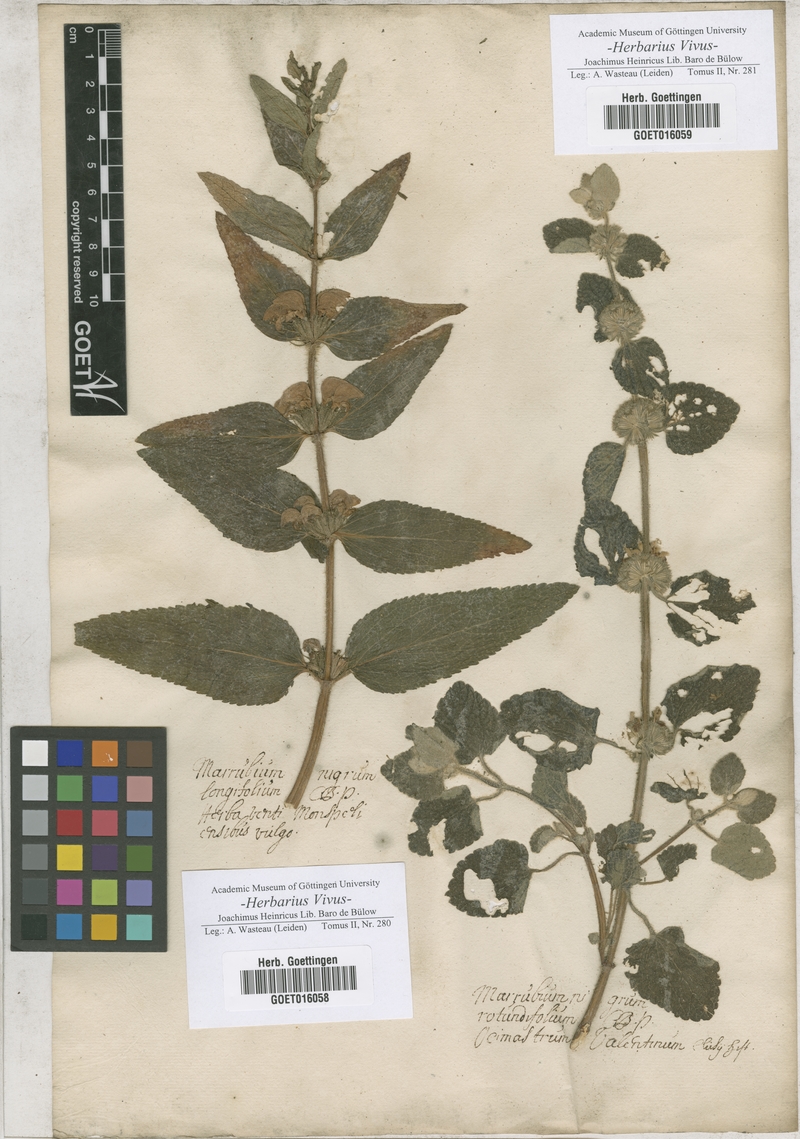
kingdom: Plantae
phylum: Tracheophyta
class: Magnoliopsida
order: Lamiales
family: Lamiaceae
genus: Phlomis
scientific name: Phlomis herba-venti
